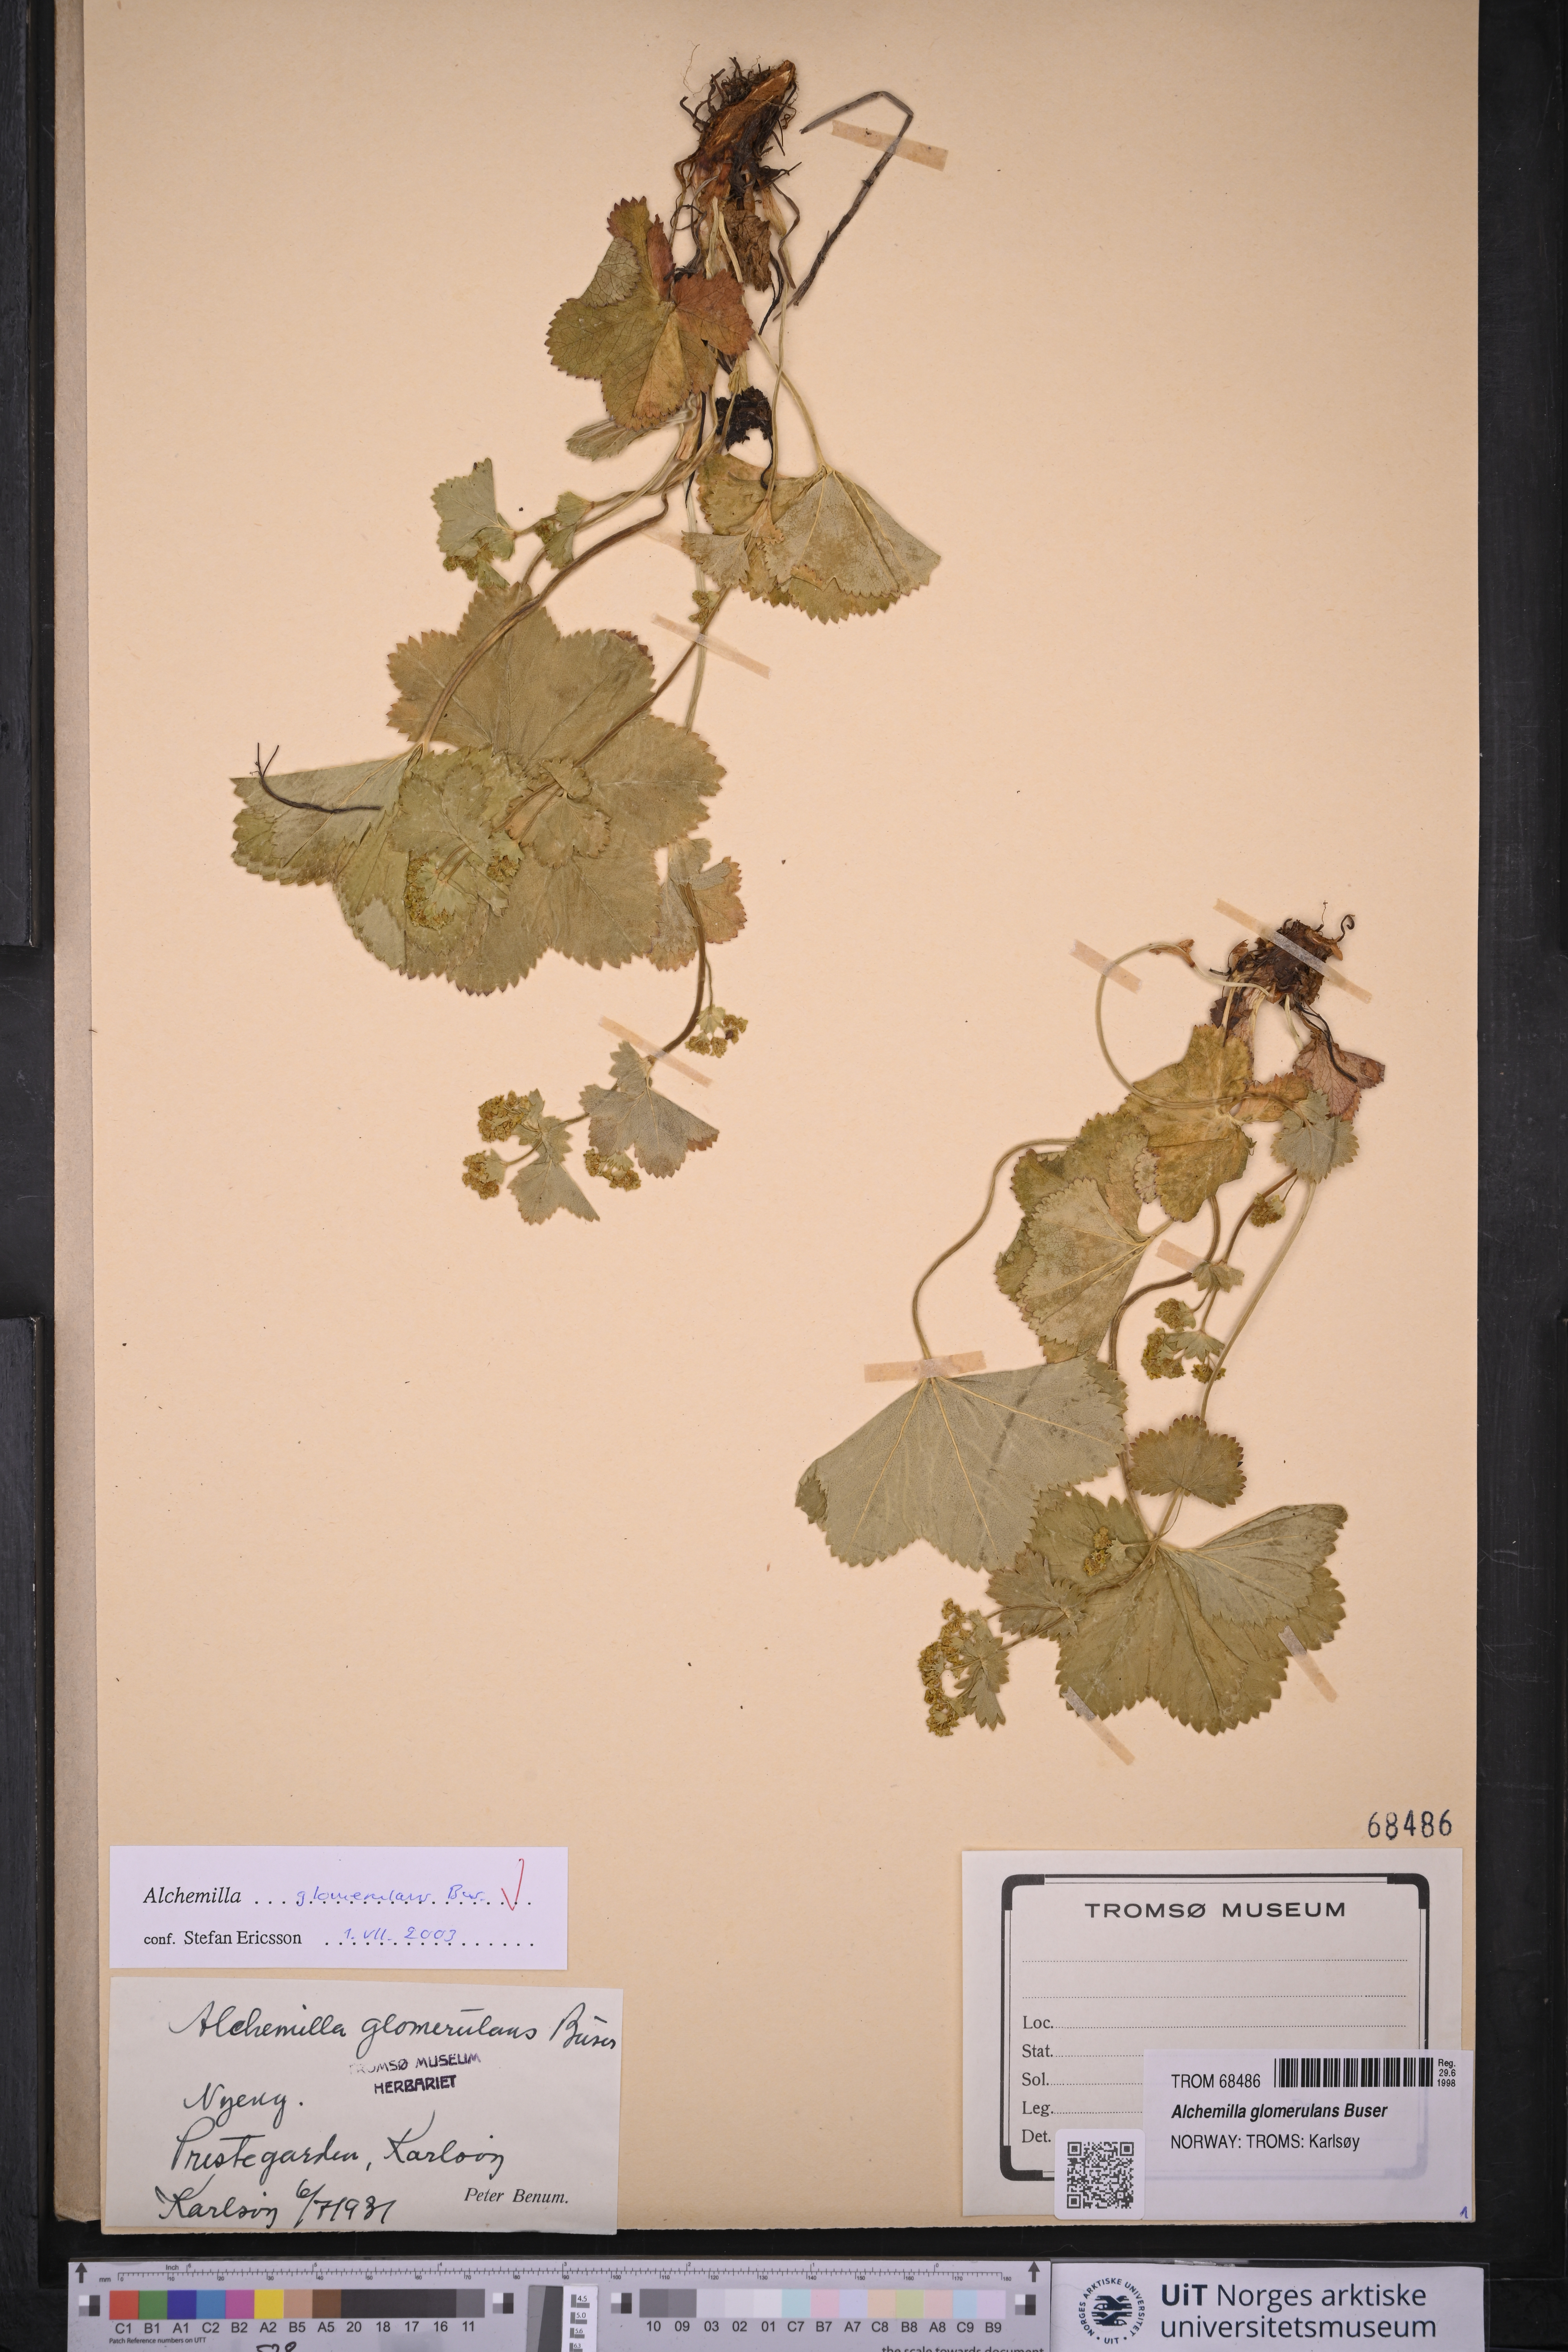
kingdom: Plantae
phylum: Tracheophyta
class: Magnoliopsida
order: Rosales
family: Rosaceae
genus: Alchemilla
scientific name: Alchemilla glomerulans
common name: Clustered lady's mantle
